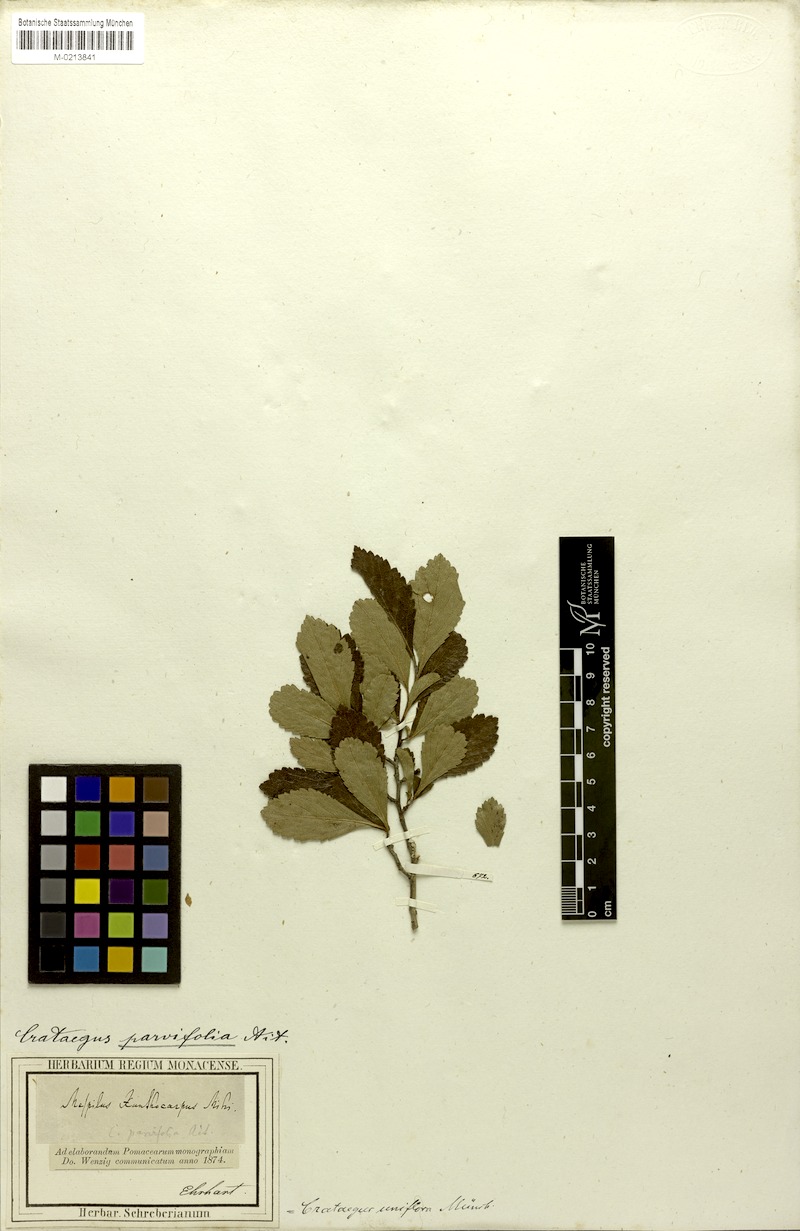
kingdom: Plantae
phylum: Tracheophyta
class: Magnoliopsida
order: Rosales
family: Rosaceae
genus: Crataegus
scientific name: Crataegus uniflora
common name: One-flower hawthorn
